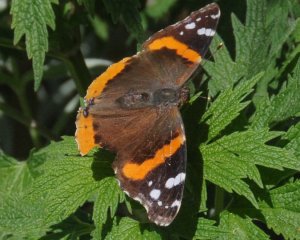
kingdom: Animalia
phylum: Arthropoda
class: Insecta
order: Lepidoptera
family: Nymphalidae
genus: Vanessa
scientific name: Vanessa atalanta
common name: Red Admiral
